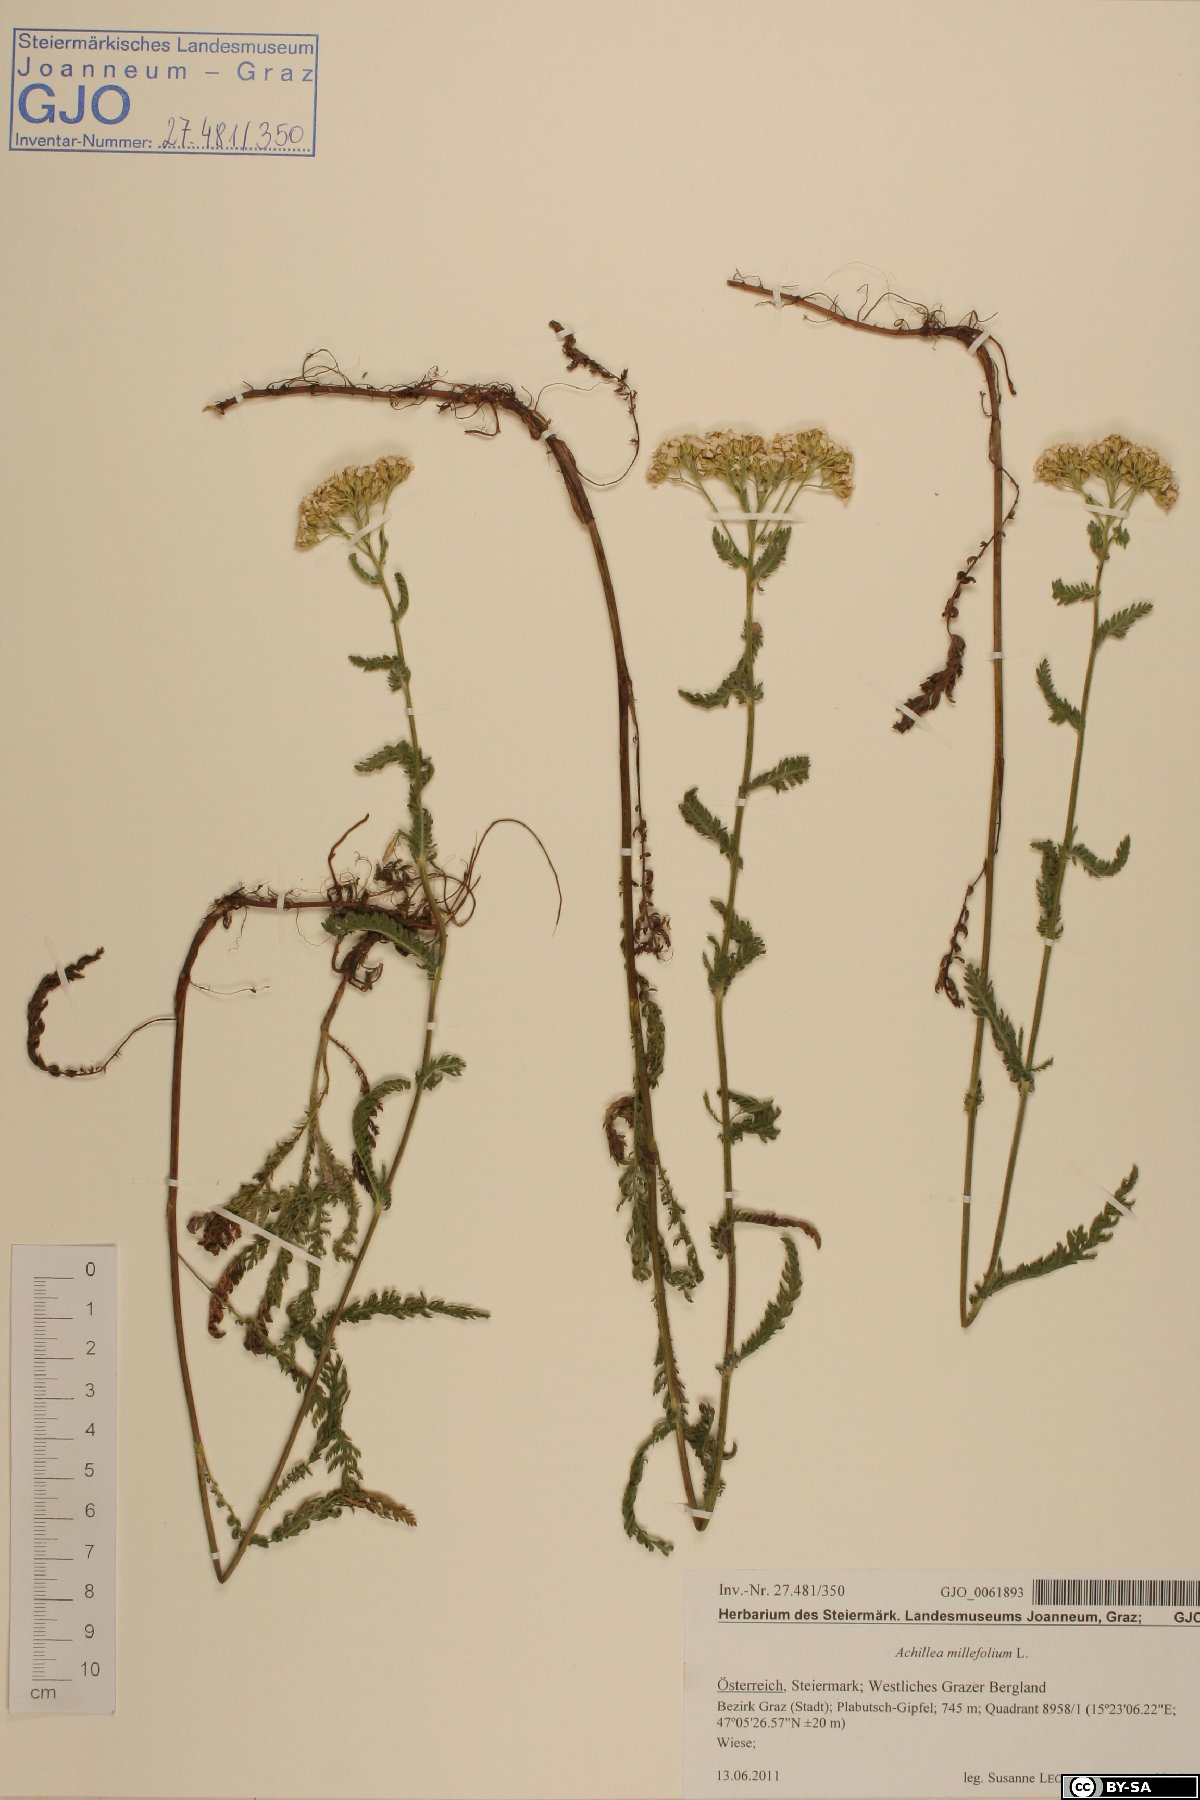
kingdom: Plantae
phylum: Tracheophyta
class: Magnoliopsida
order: Asterales
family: Asteraceae
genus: Achillea
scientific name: Achillea millefolium
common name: Yarrow
